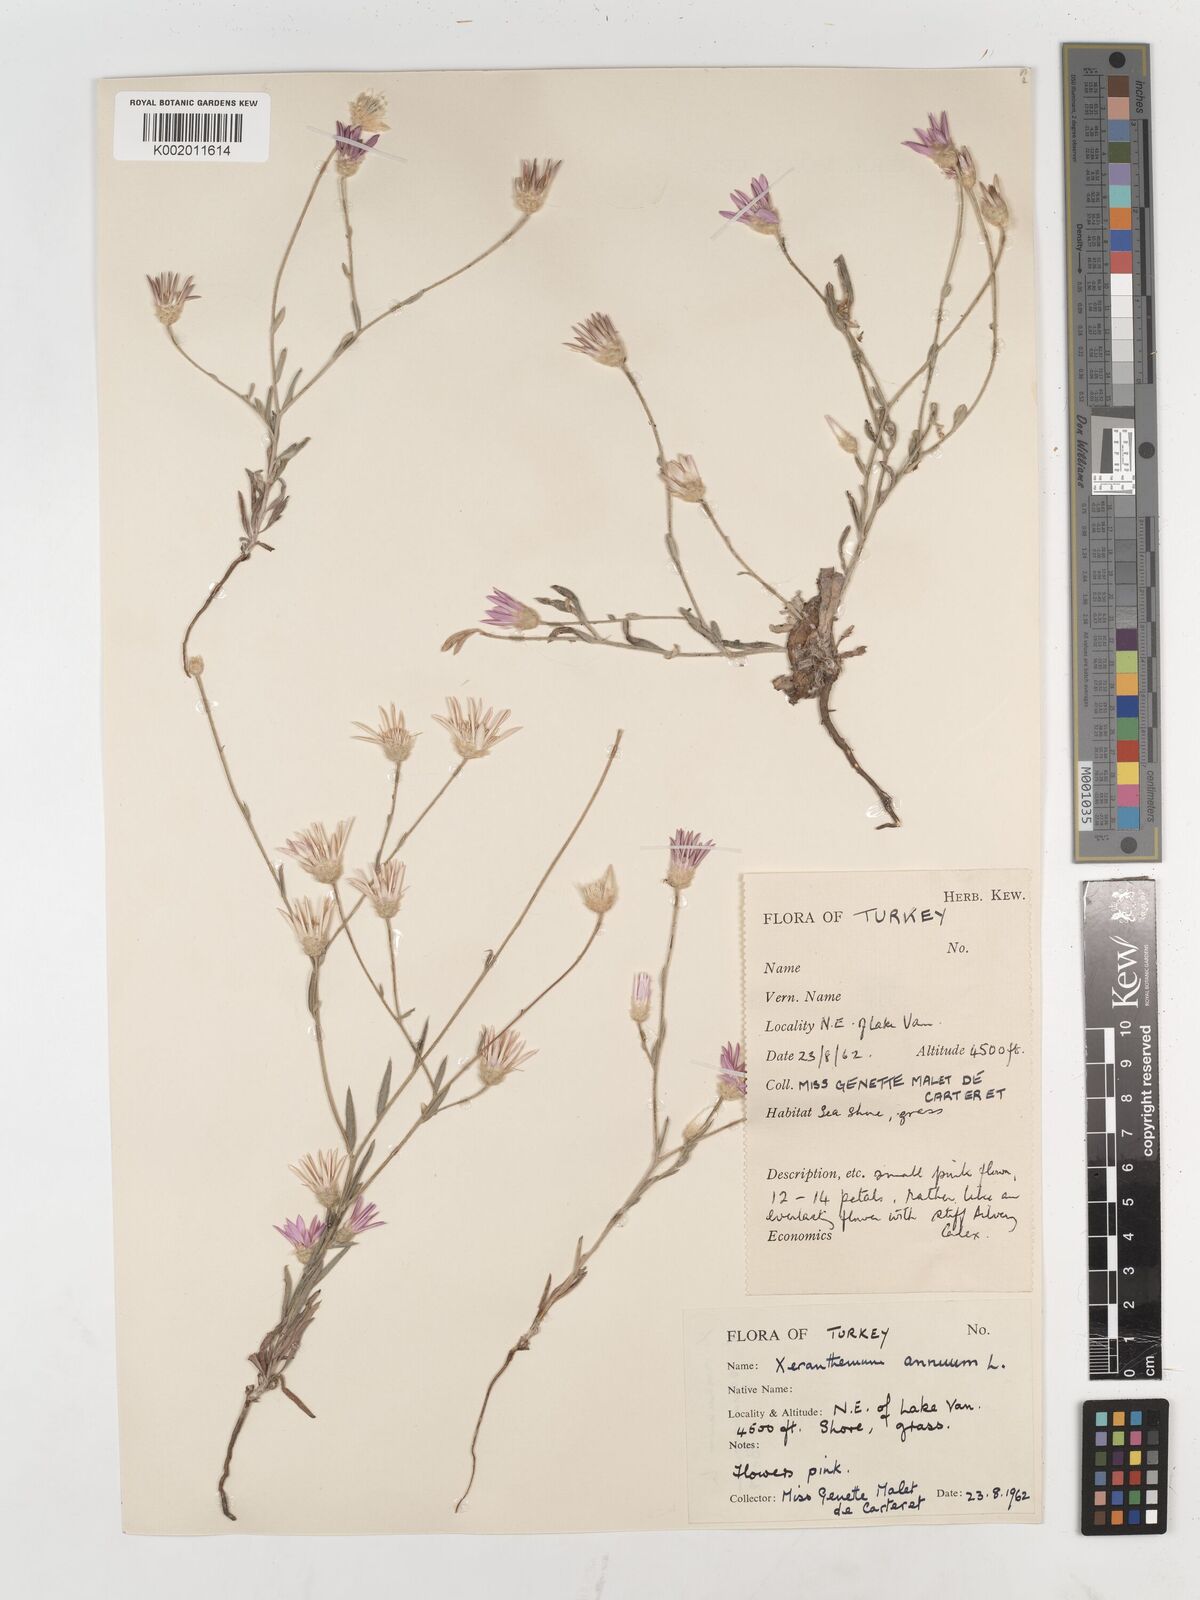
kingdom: Plantae
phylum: Tracheophyta
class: Magnoliopsida
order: Asterales
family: Asteraceae
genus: Xeranthemum
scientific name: Xeranthemum annuum
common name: Immortelle
